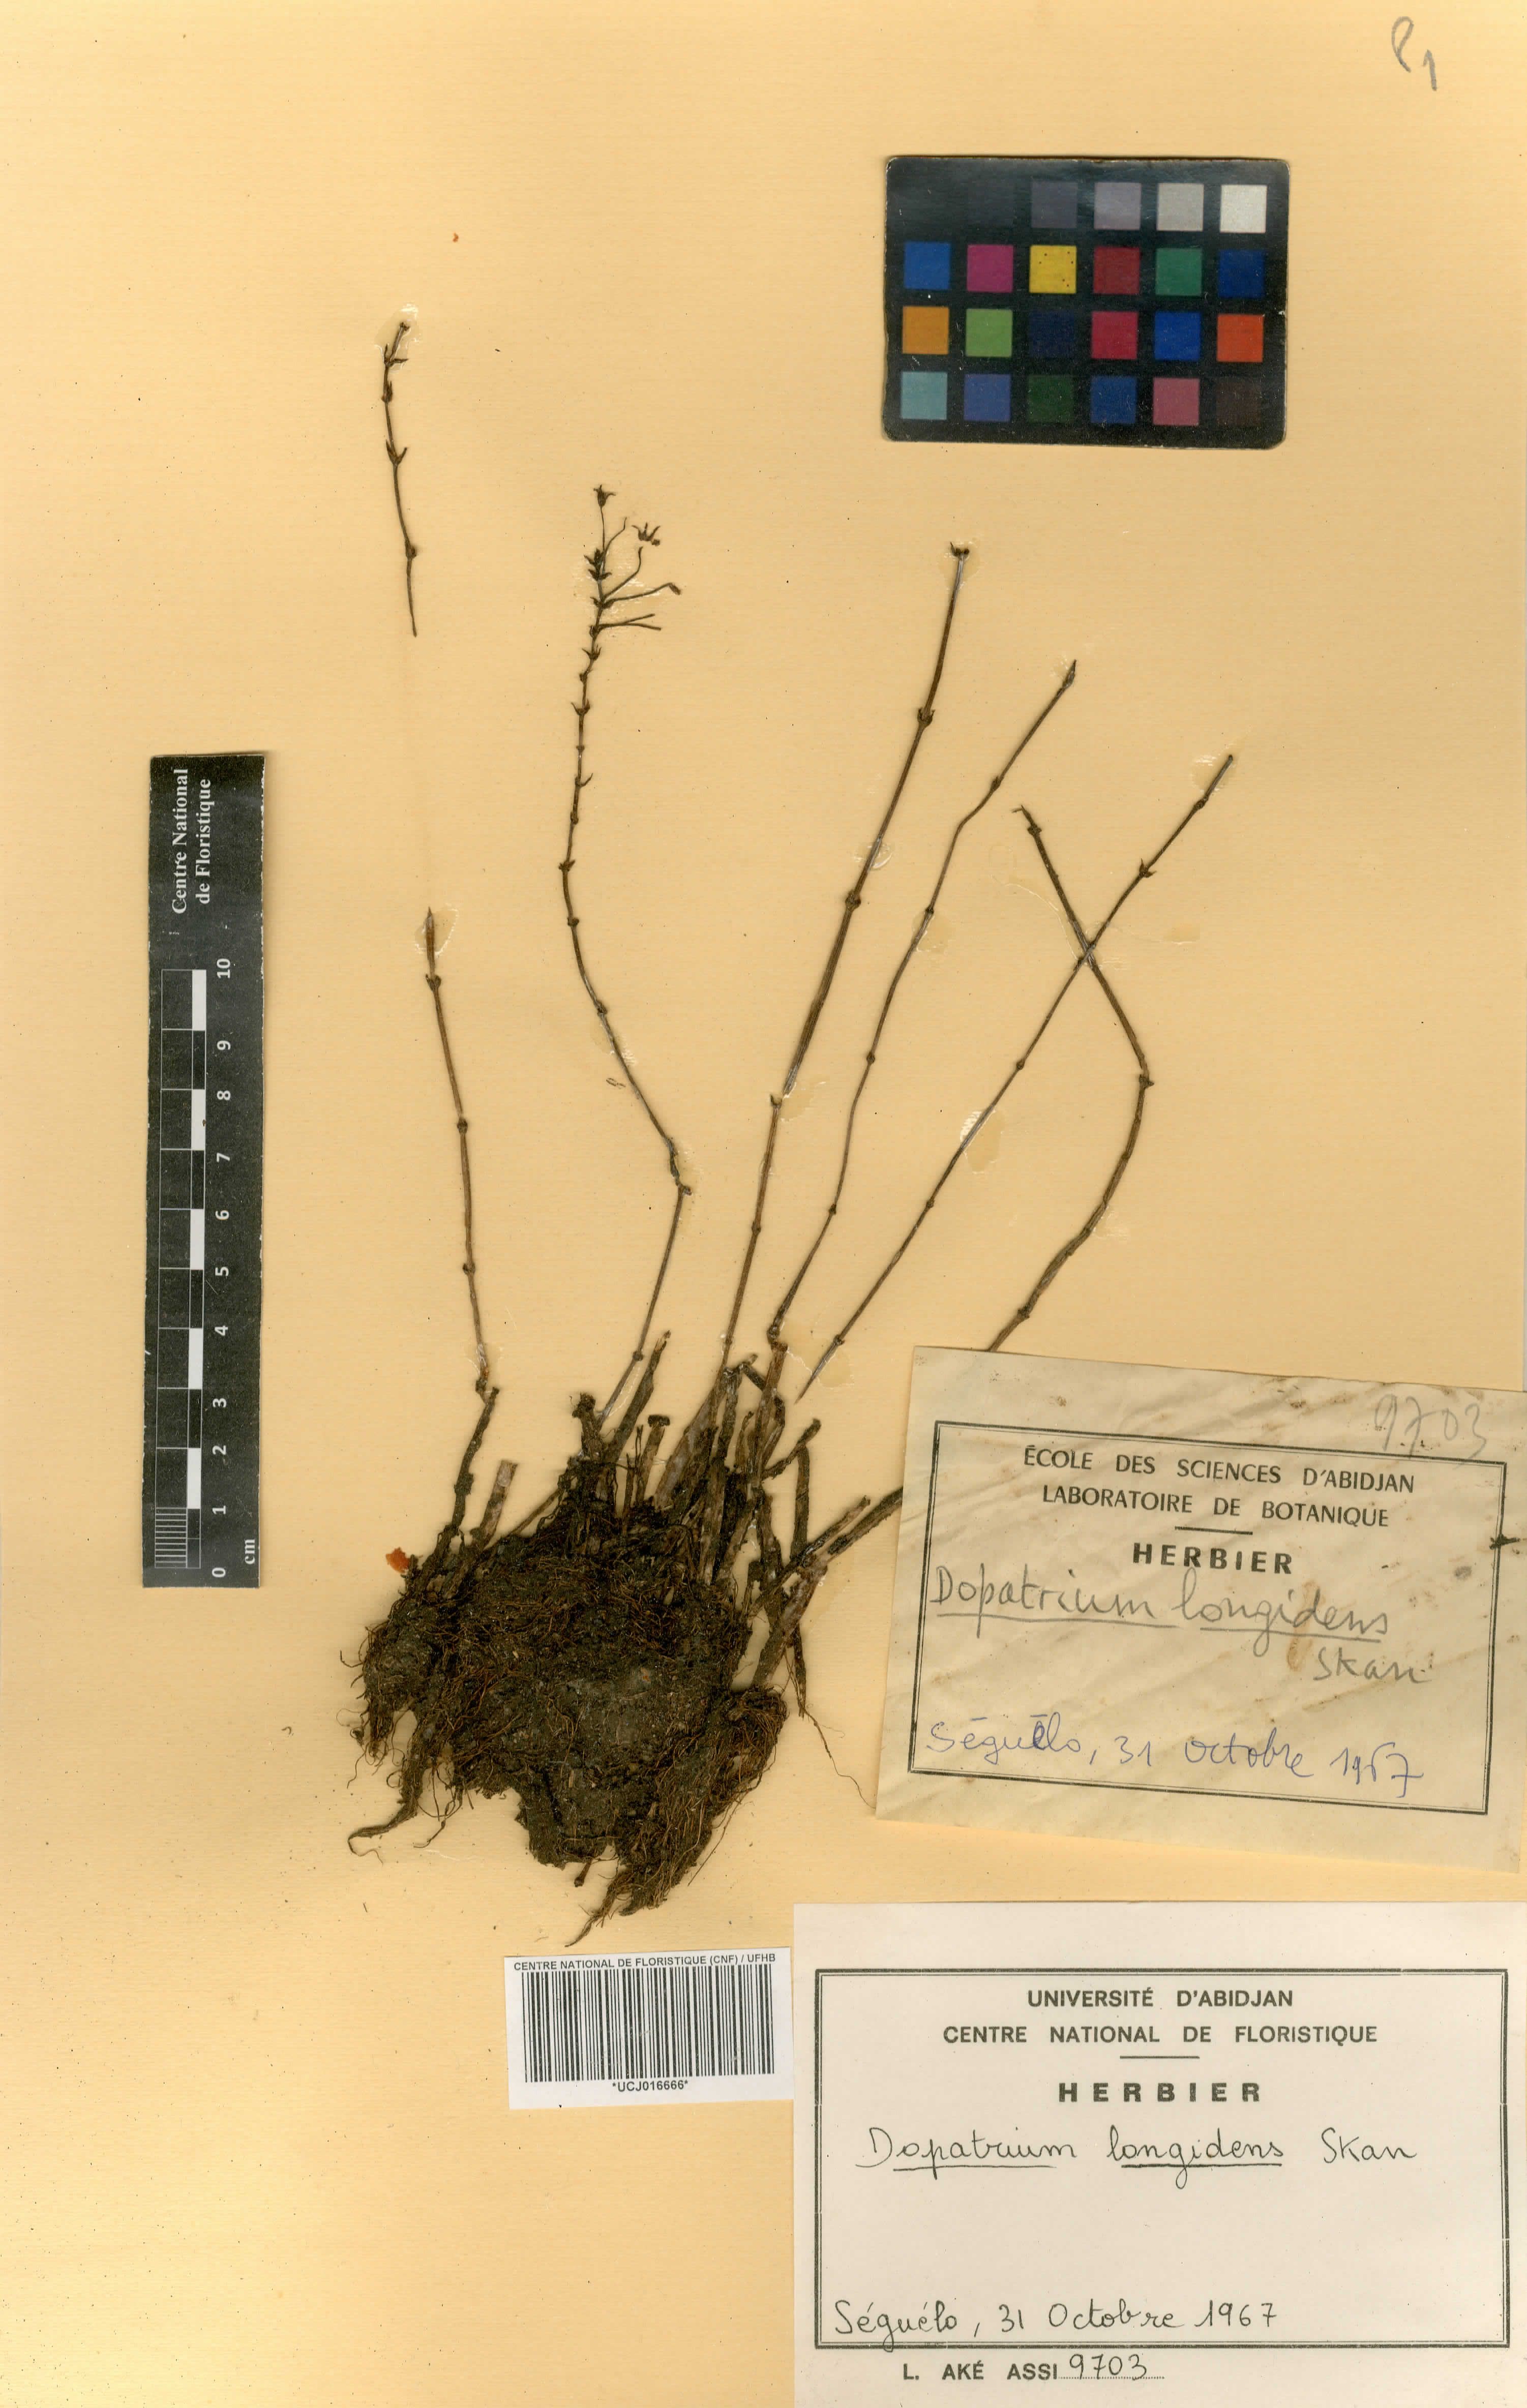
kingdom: Plantae
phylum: Tracheophyta
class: Magnoliopsida
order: Lamiales
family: Plantaginaceae
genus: Dopatrium
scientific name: Dopatrium longidens
